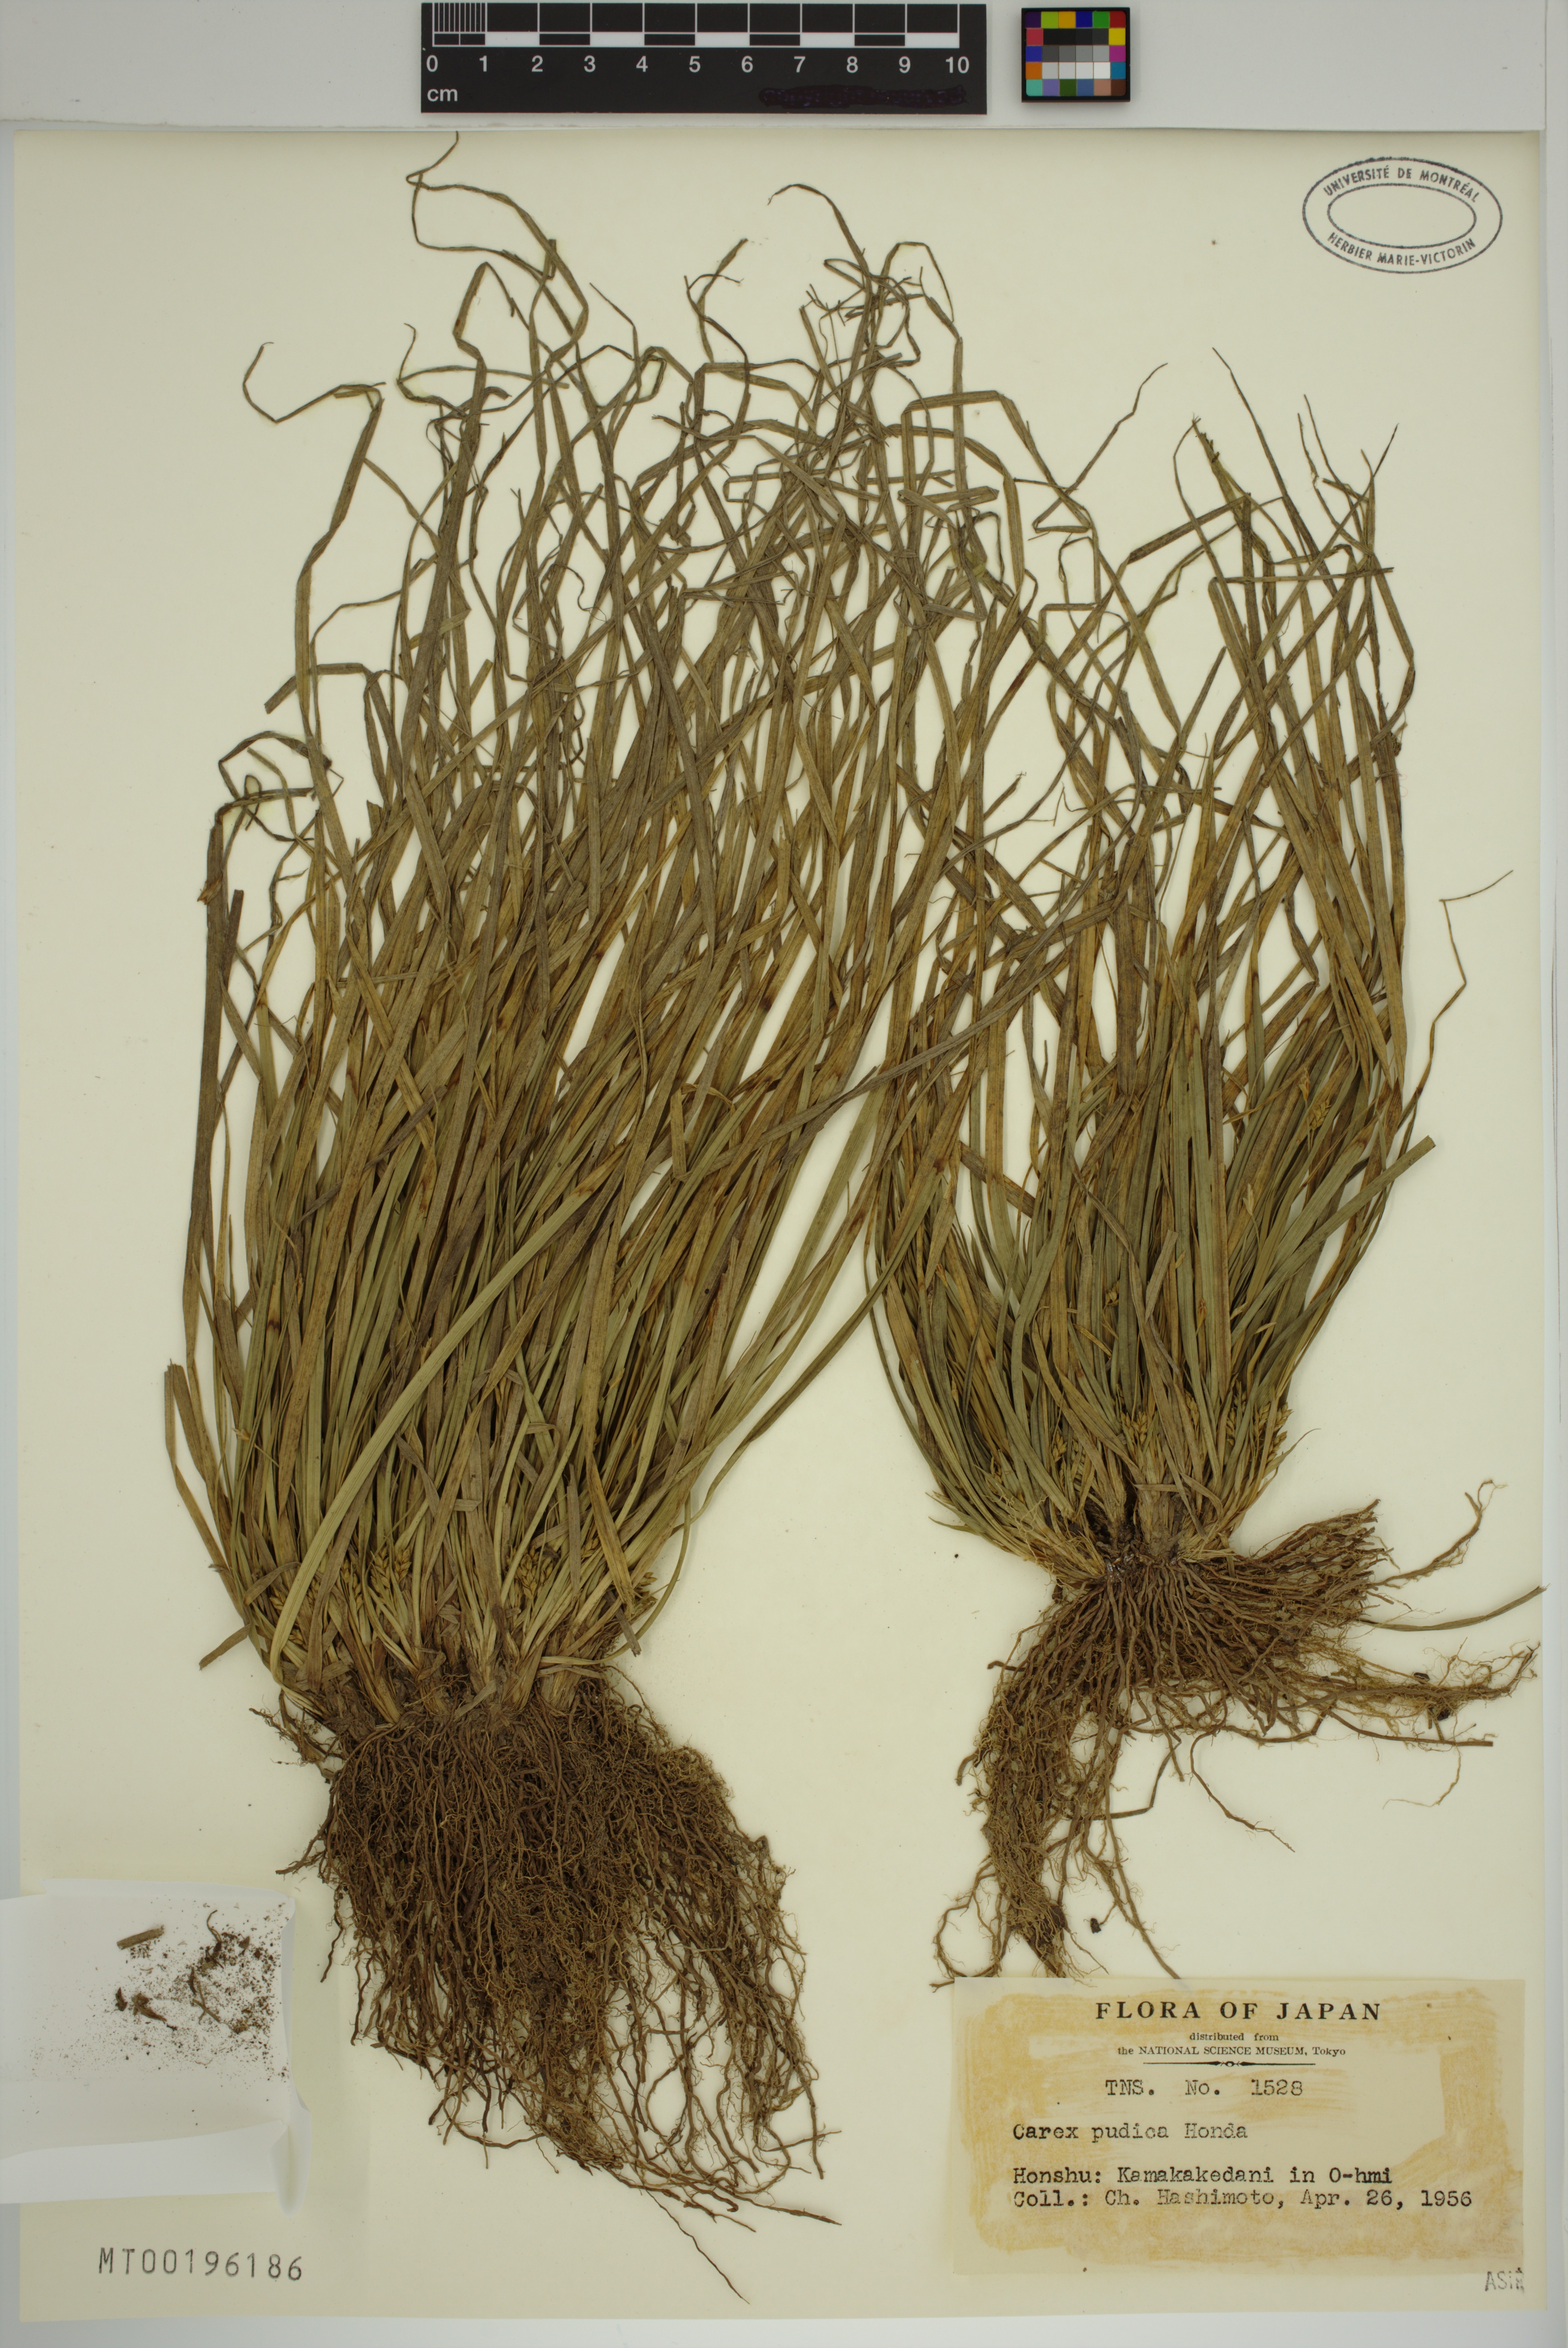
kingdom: Plantae
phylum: Tracheophyta
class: Liliopsida
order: Poales
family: Cyperaceae
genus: Carex
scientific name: Carex pudica
